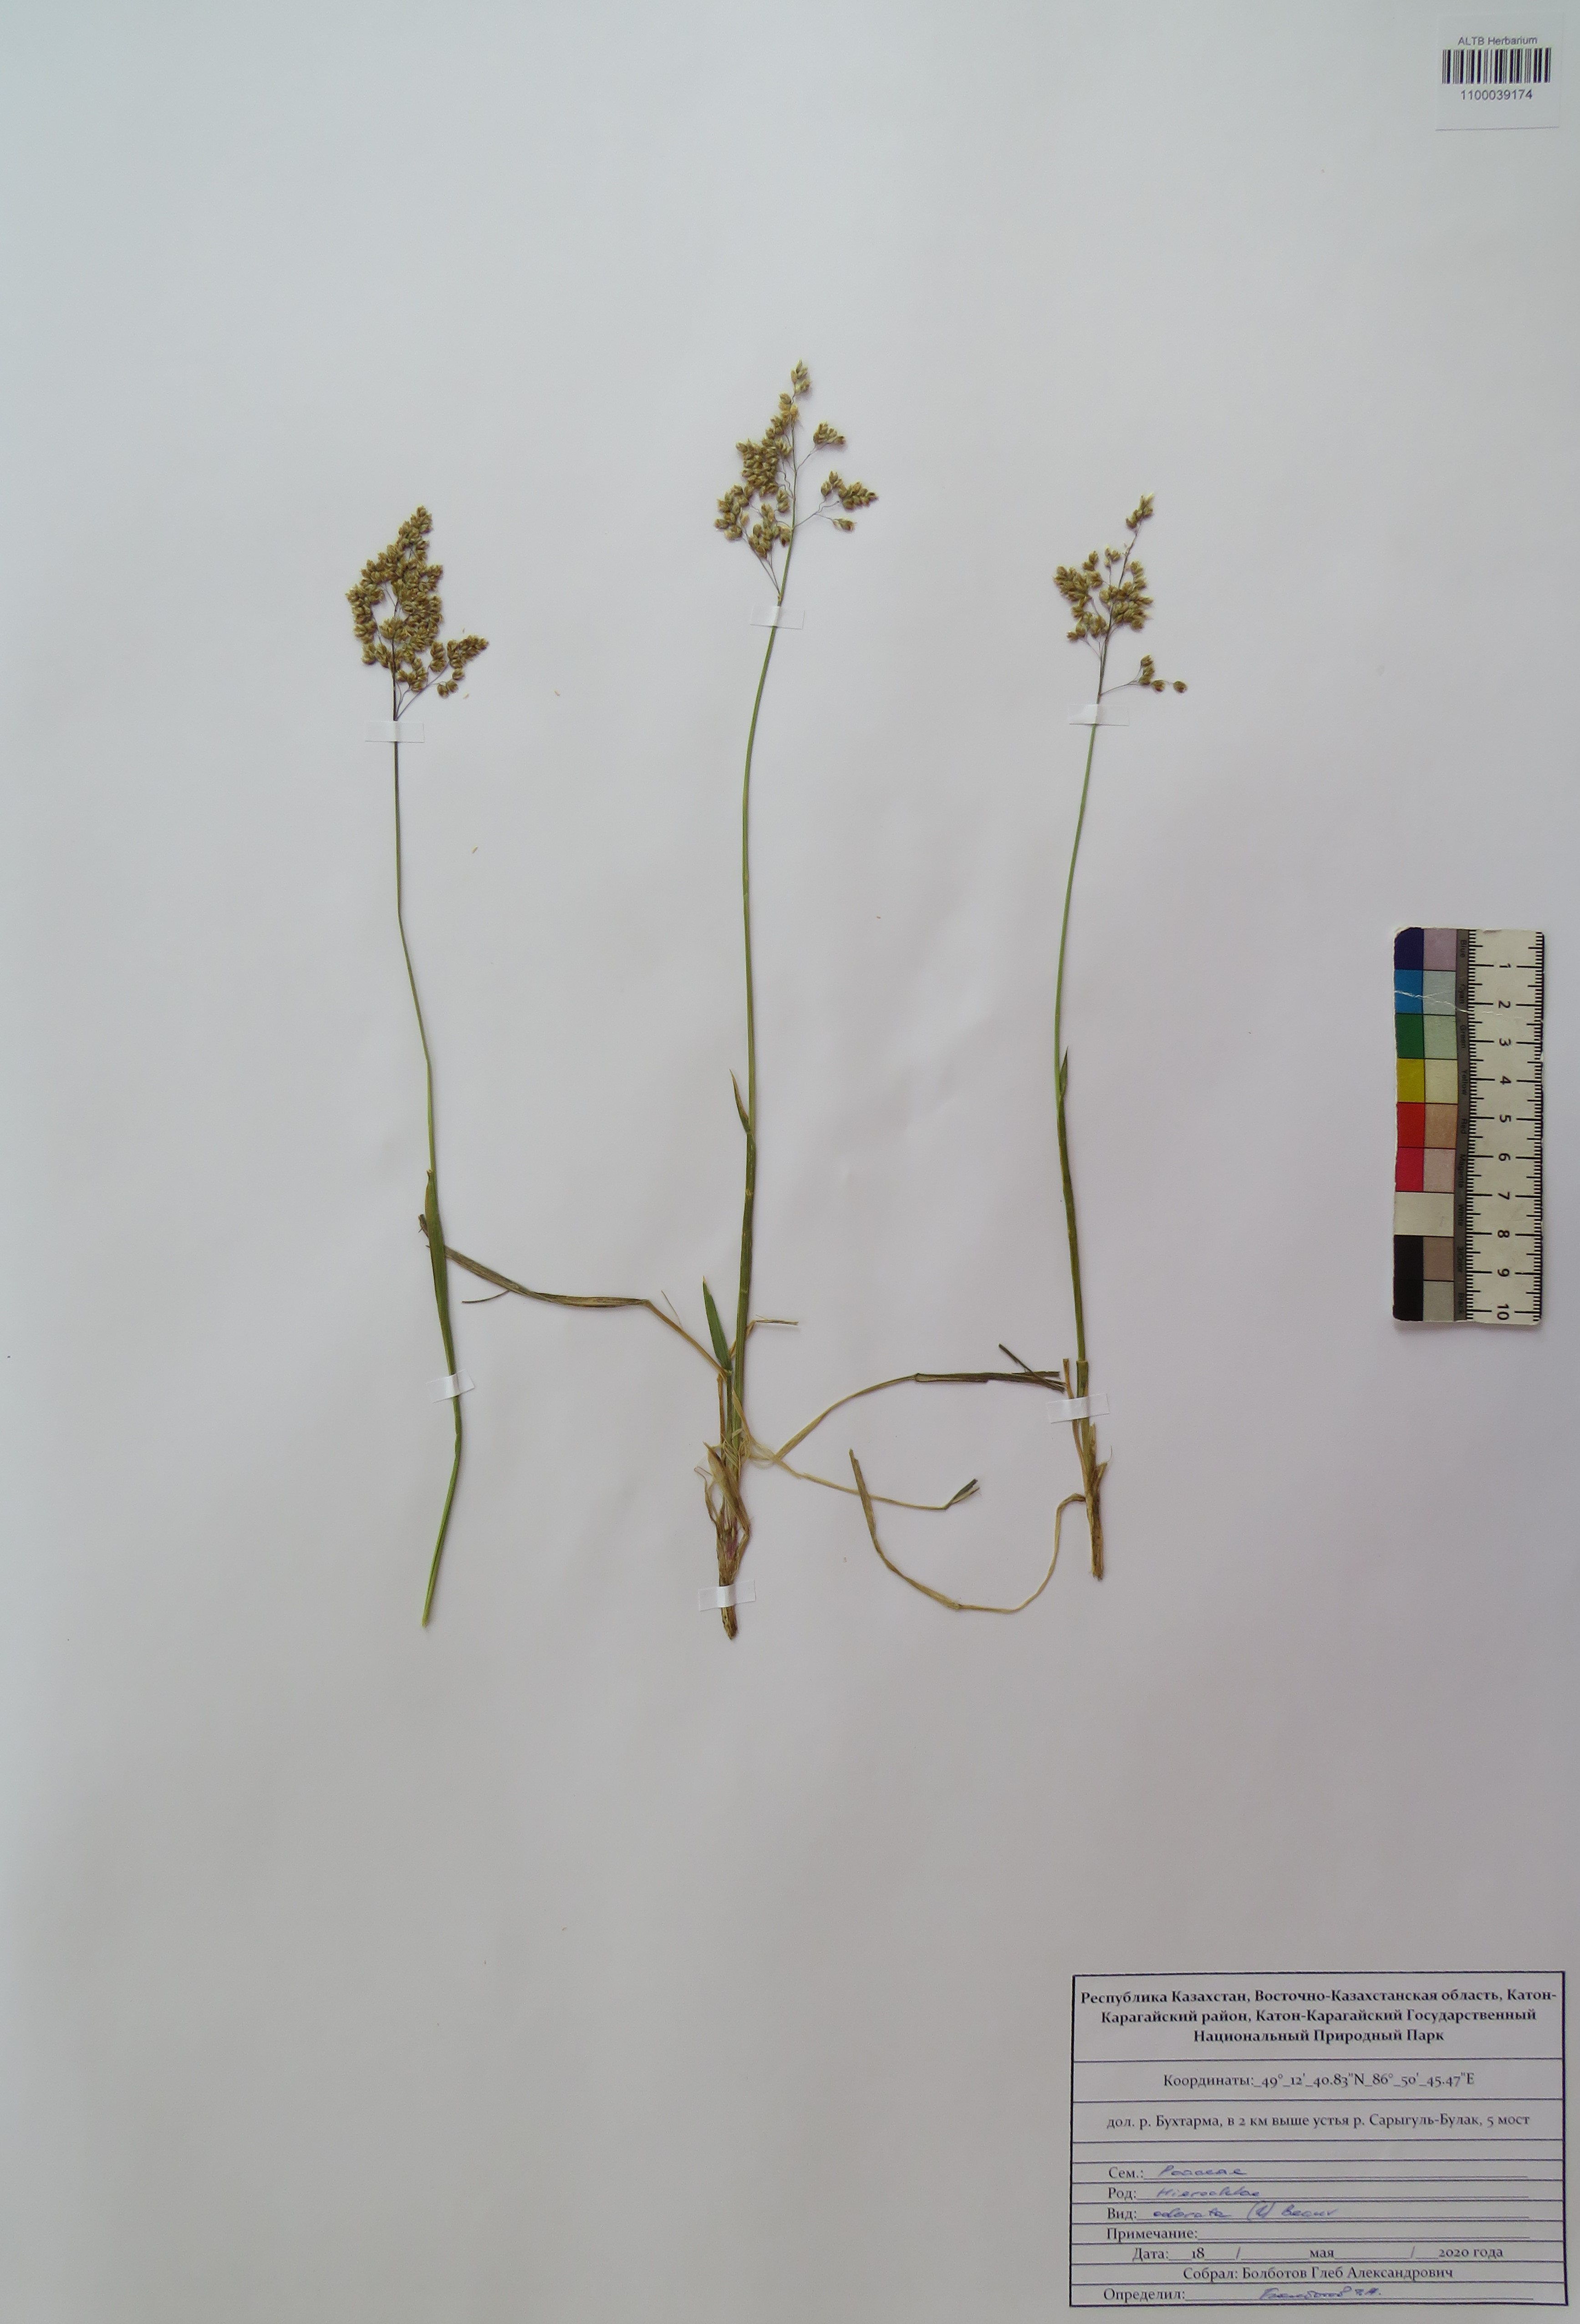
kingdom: Plantae
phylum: Tracheophyta
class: Liliopsida
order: Poales
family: Poaceae
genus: Anthoxanthum
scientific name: Anthoxanthum nitens
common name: Holy grass
